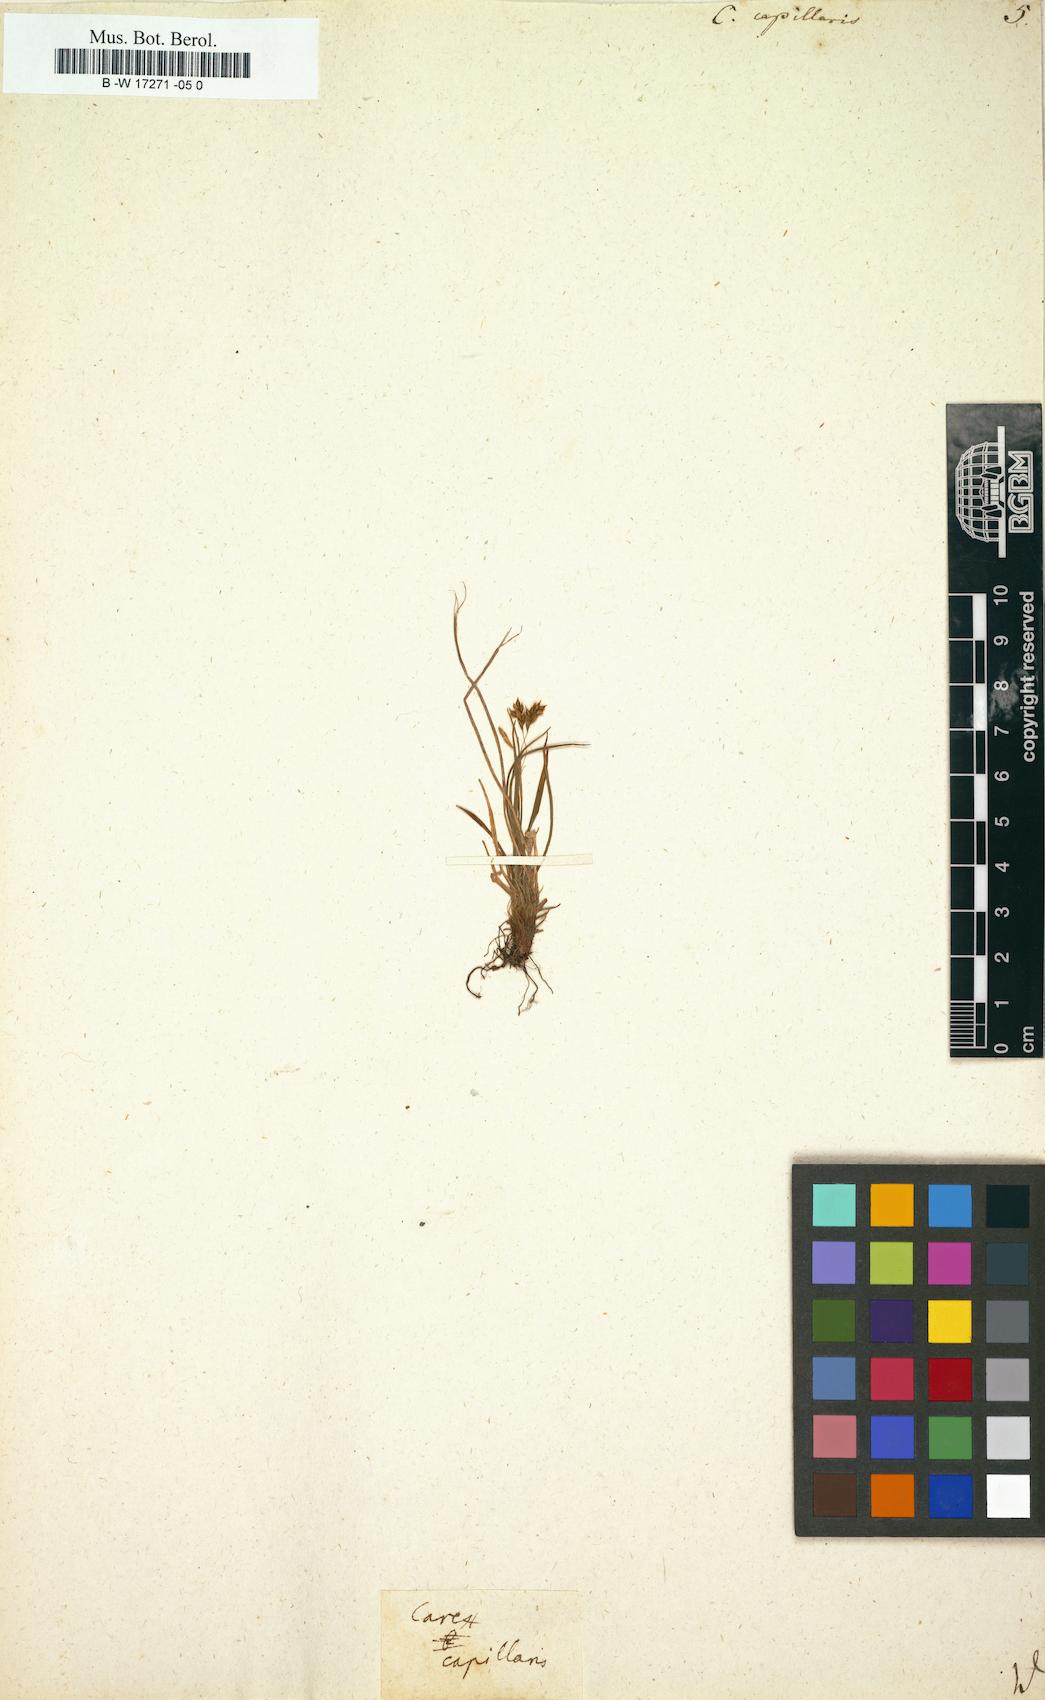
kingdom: Plantae
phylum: Tracheophyta
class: Liliopsida
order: Poales
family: Cyperaceae
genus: Carex
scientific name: Carex capillaris
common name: Hair sedge
